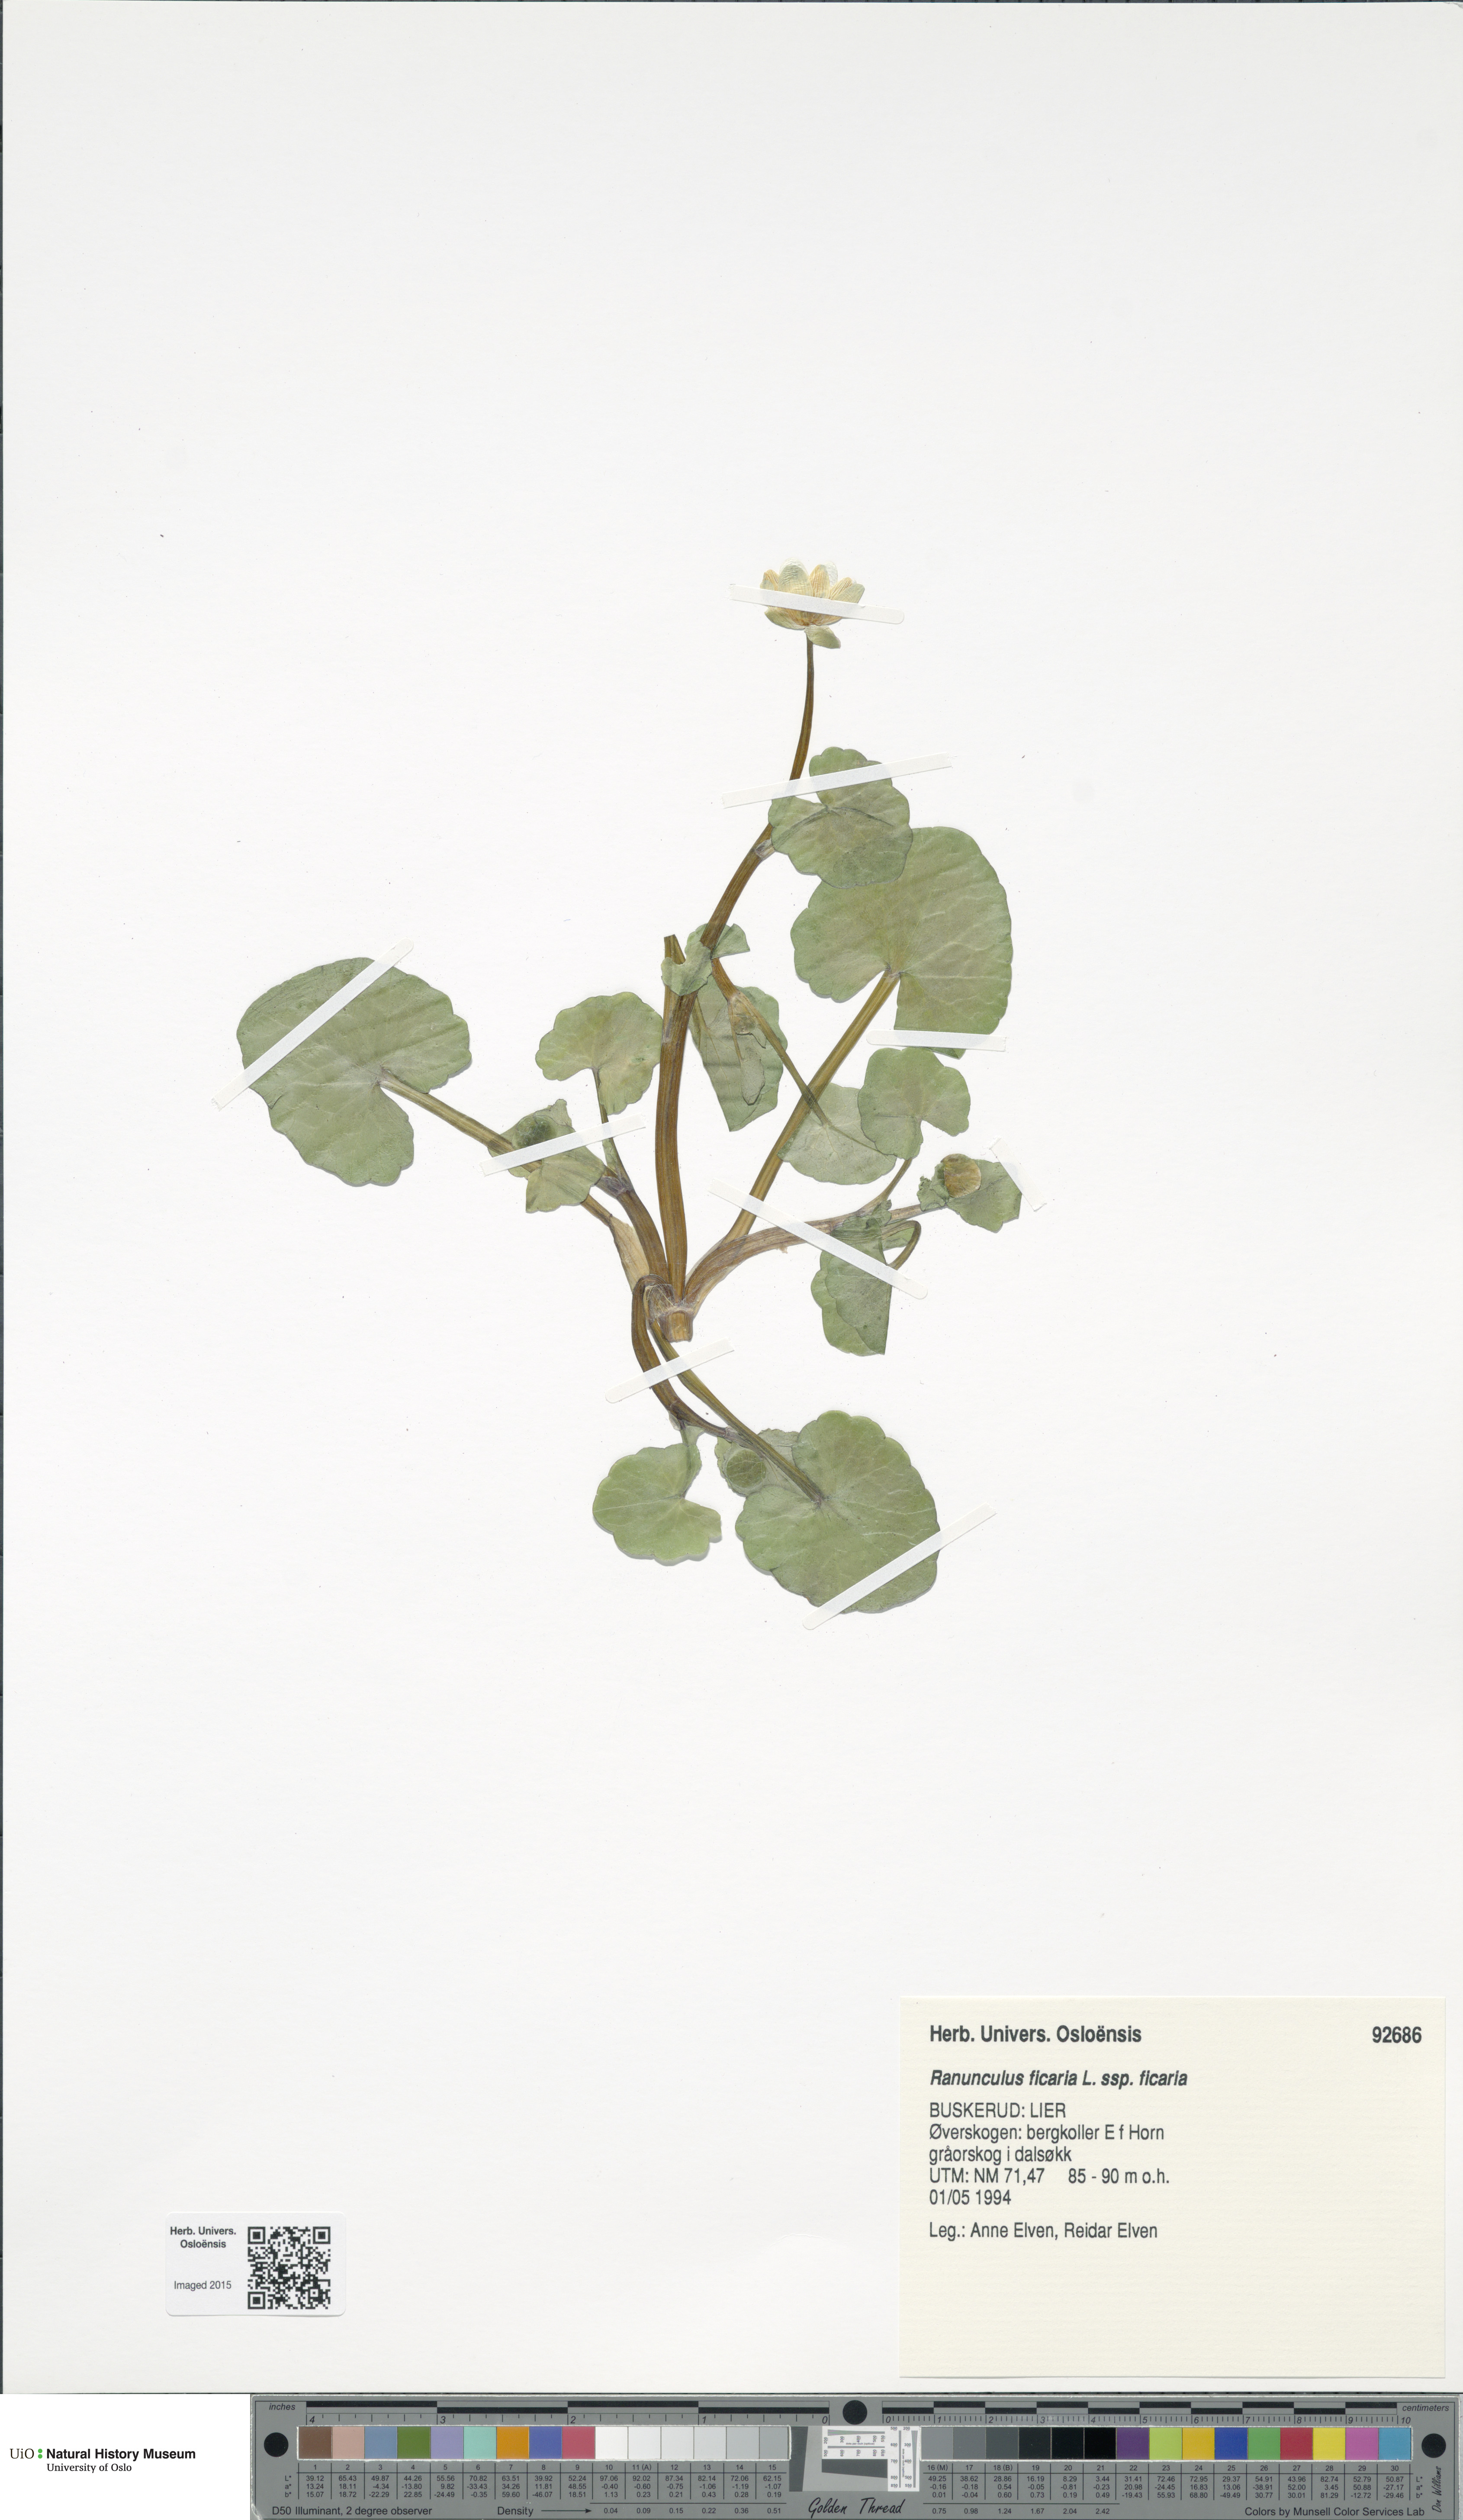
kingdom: Plantae
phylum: Tracheophyta
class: Magnoliopsida
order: Ranunculales
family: Ranunculaceae
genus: Ficaria
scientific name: Ficaria verna
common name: Lesser celandine
